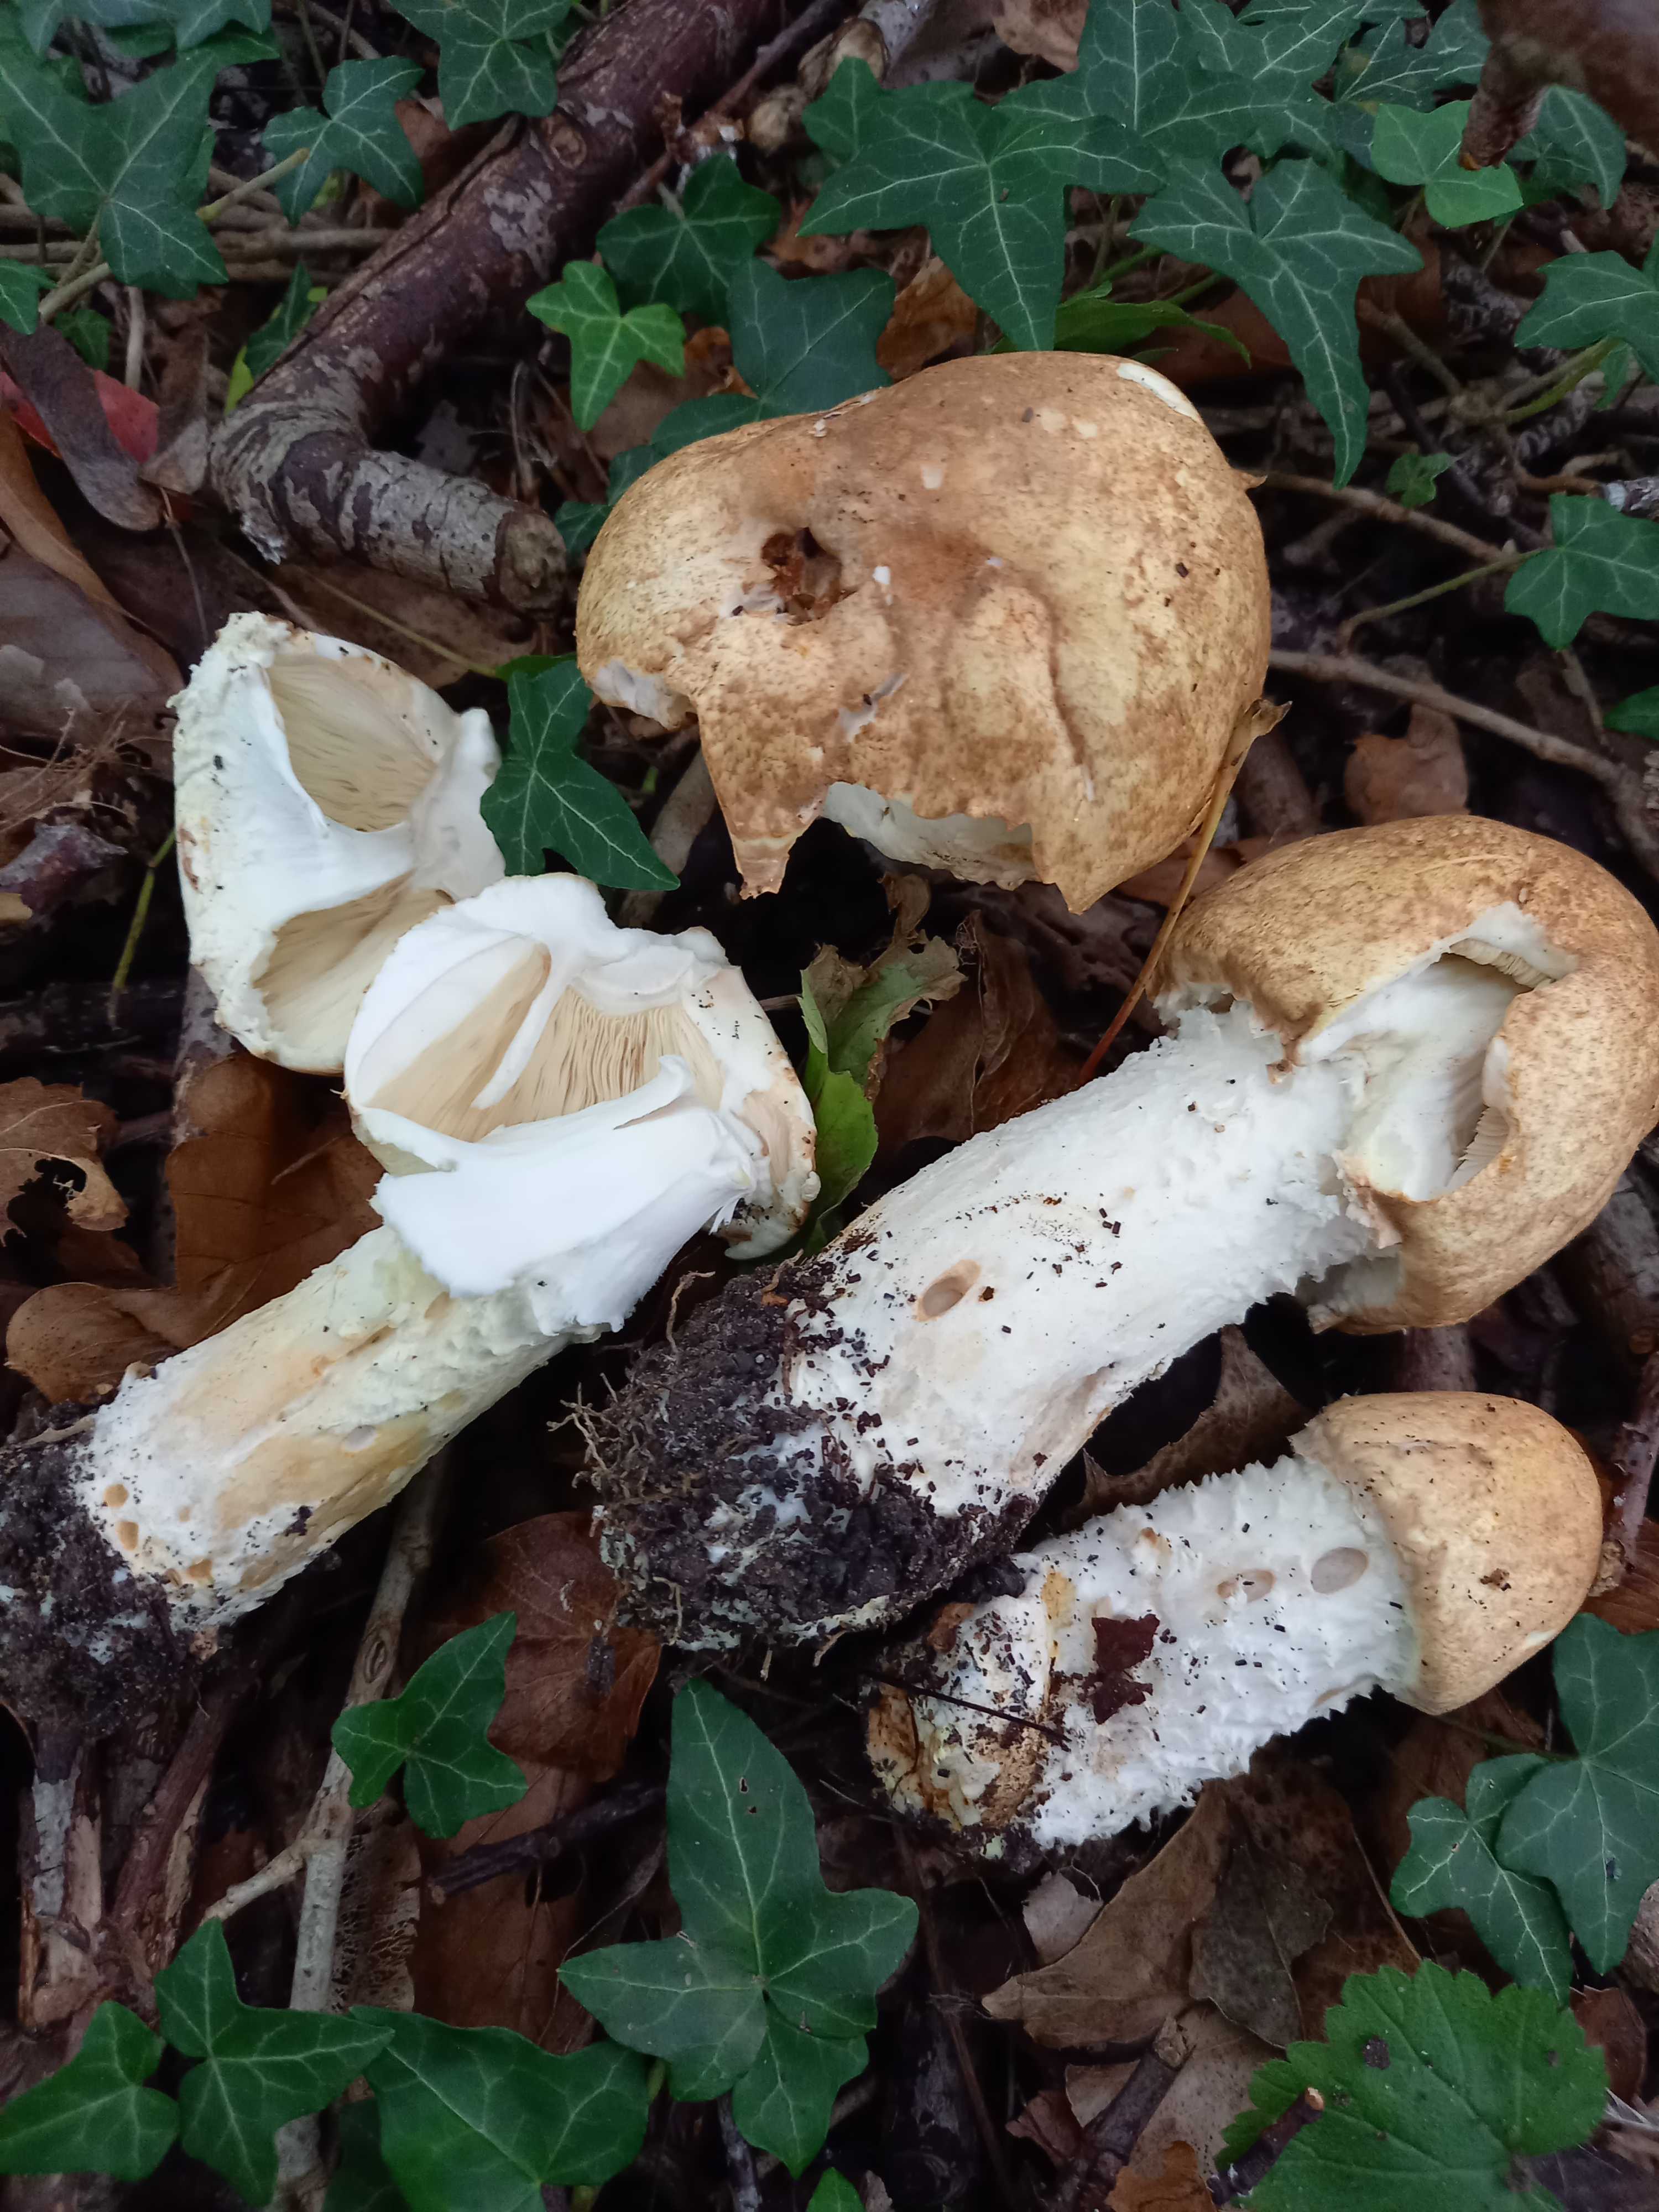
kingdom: Fungi
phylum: Basidiomycota
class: Agaricomycetes
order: Agaricales
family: Agaricaceae
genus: Agaricus
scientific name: Agaricus augustus
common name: prægtig champignon
